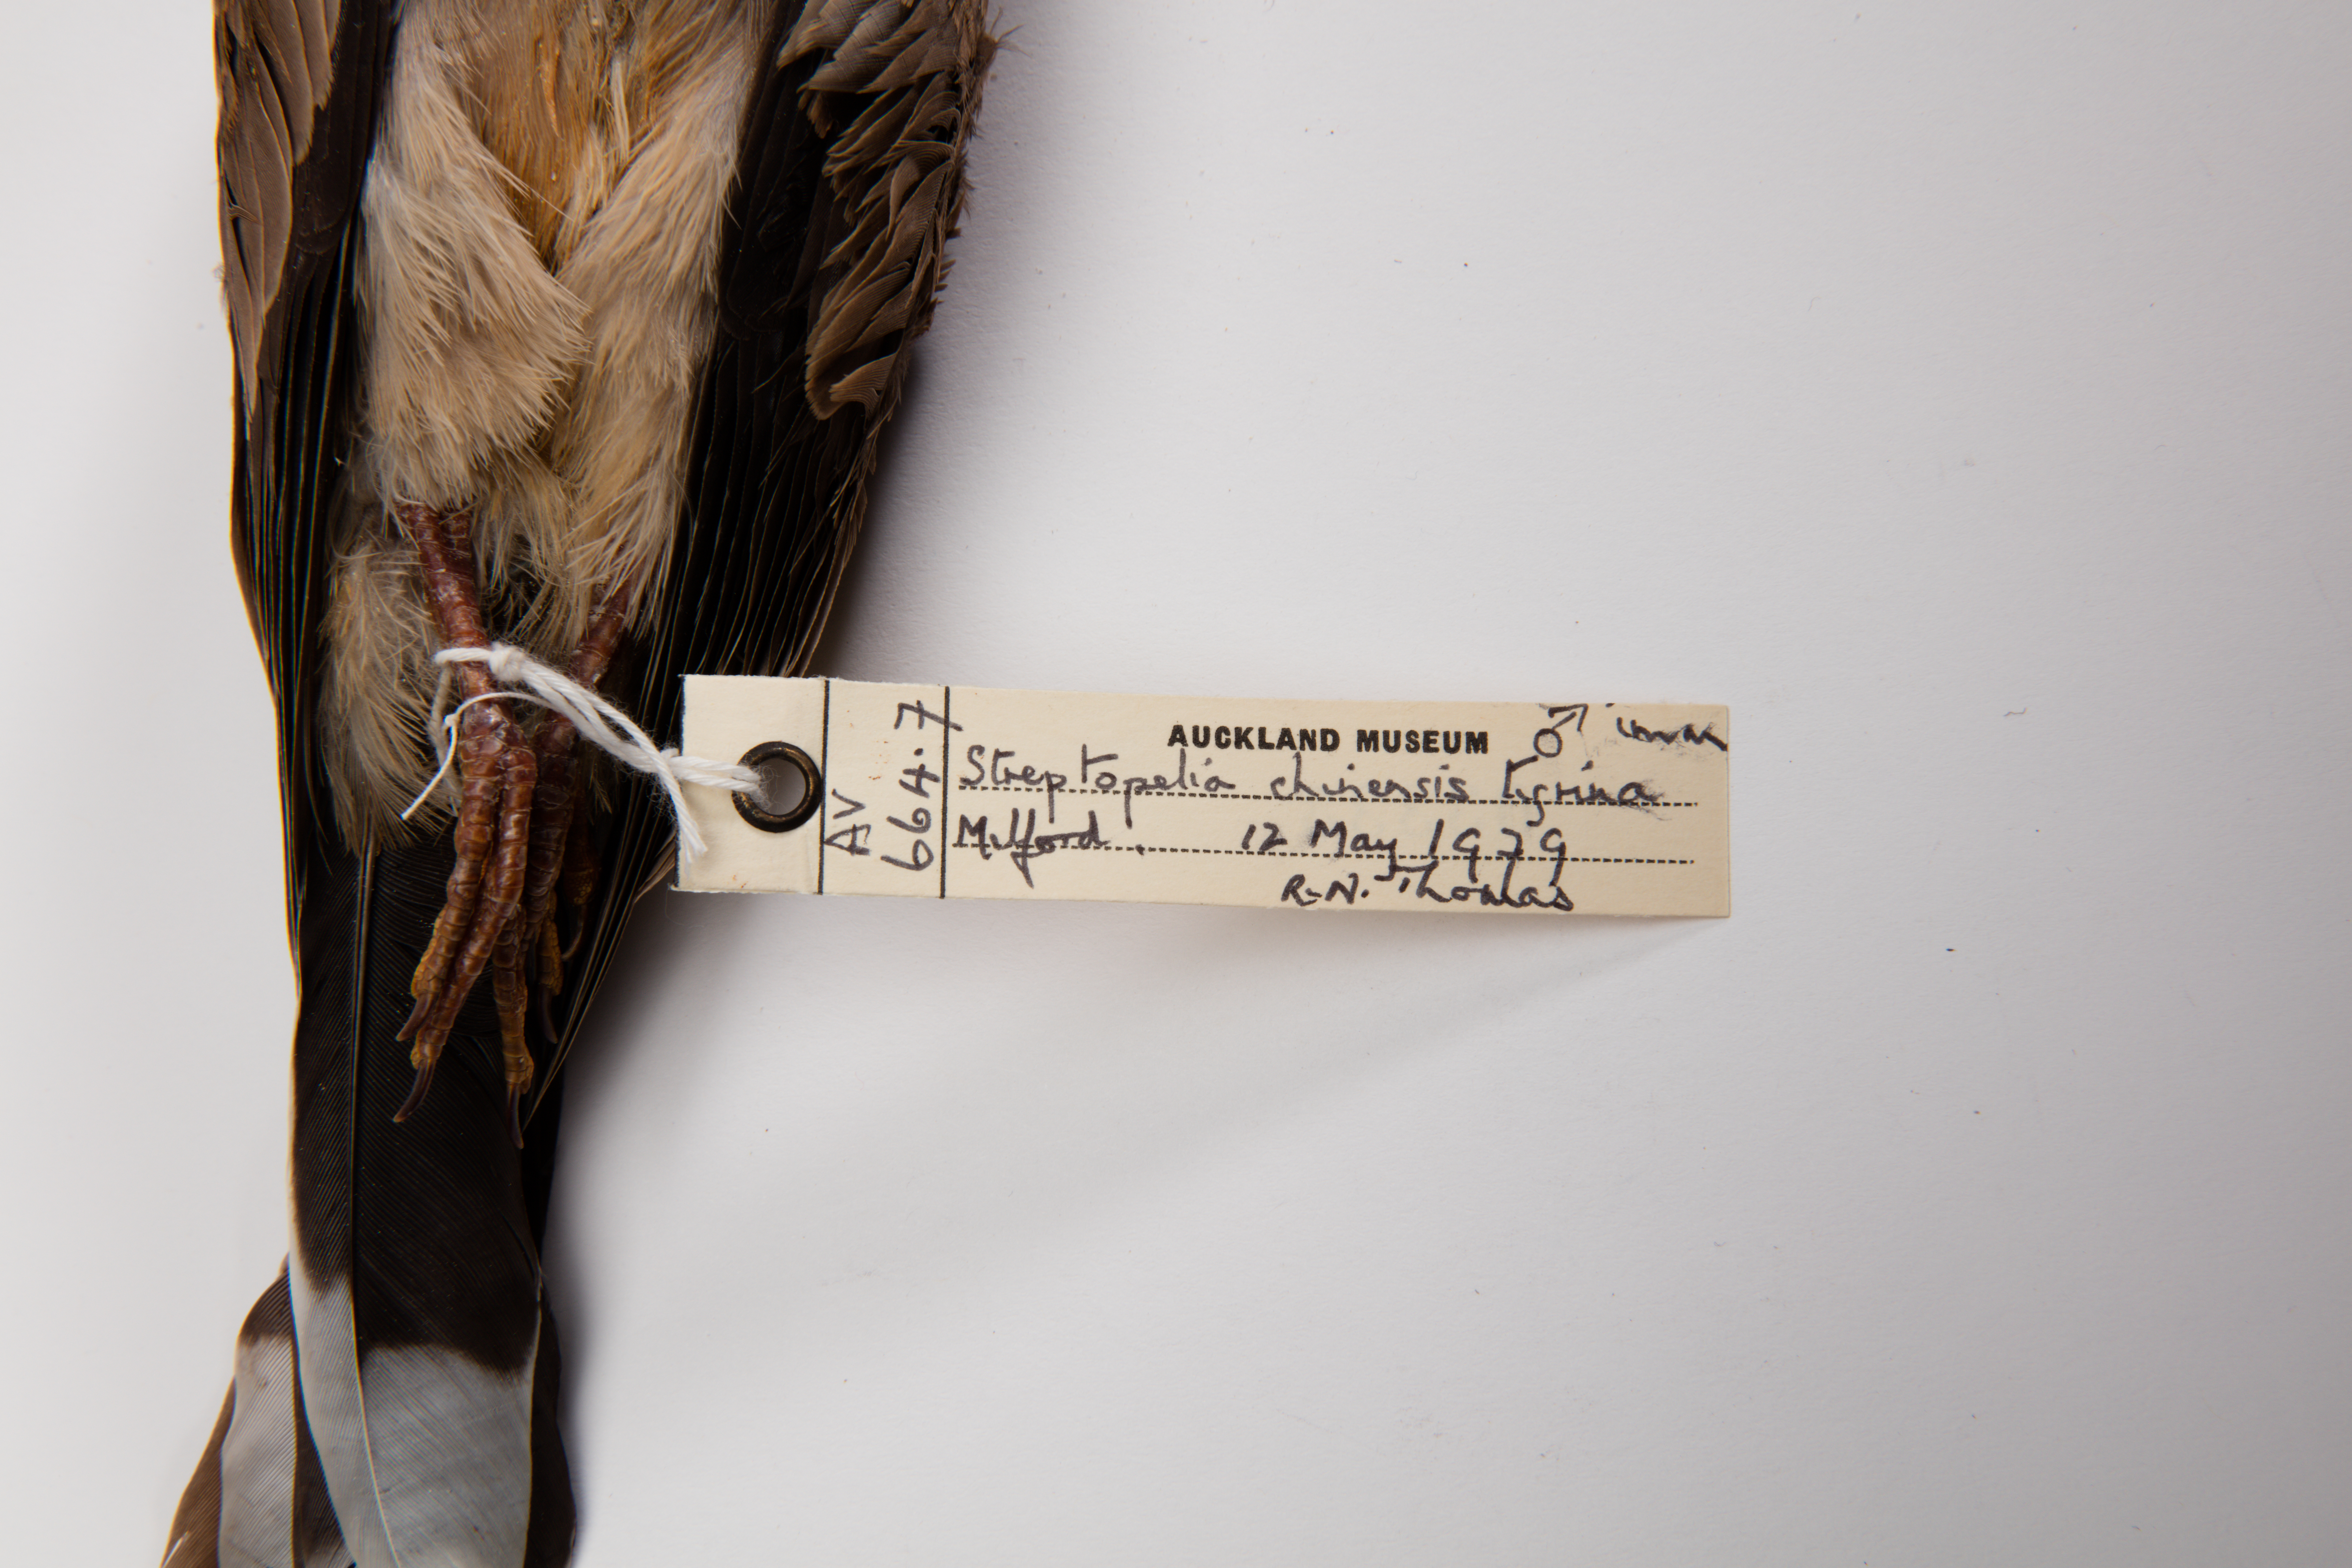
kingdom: Animalia
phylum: Chordata
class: Aves
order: Columbiformes
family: Columbidae
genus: Spilopelia
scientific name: Spilopelia chinensis
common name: Spotted dove
